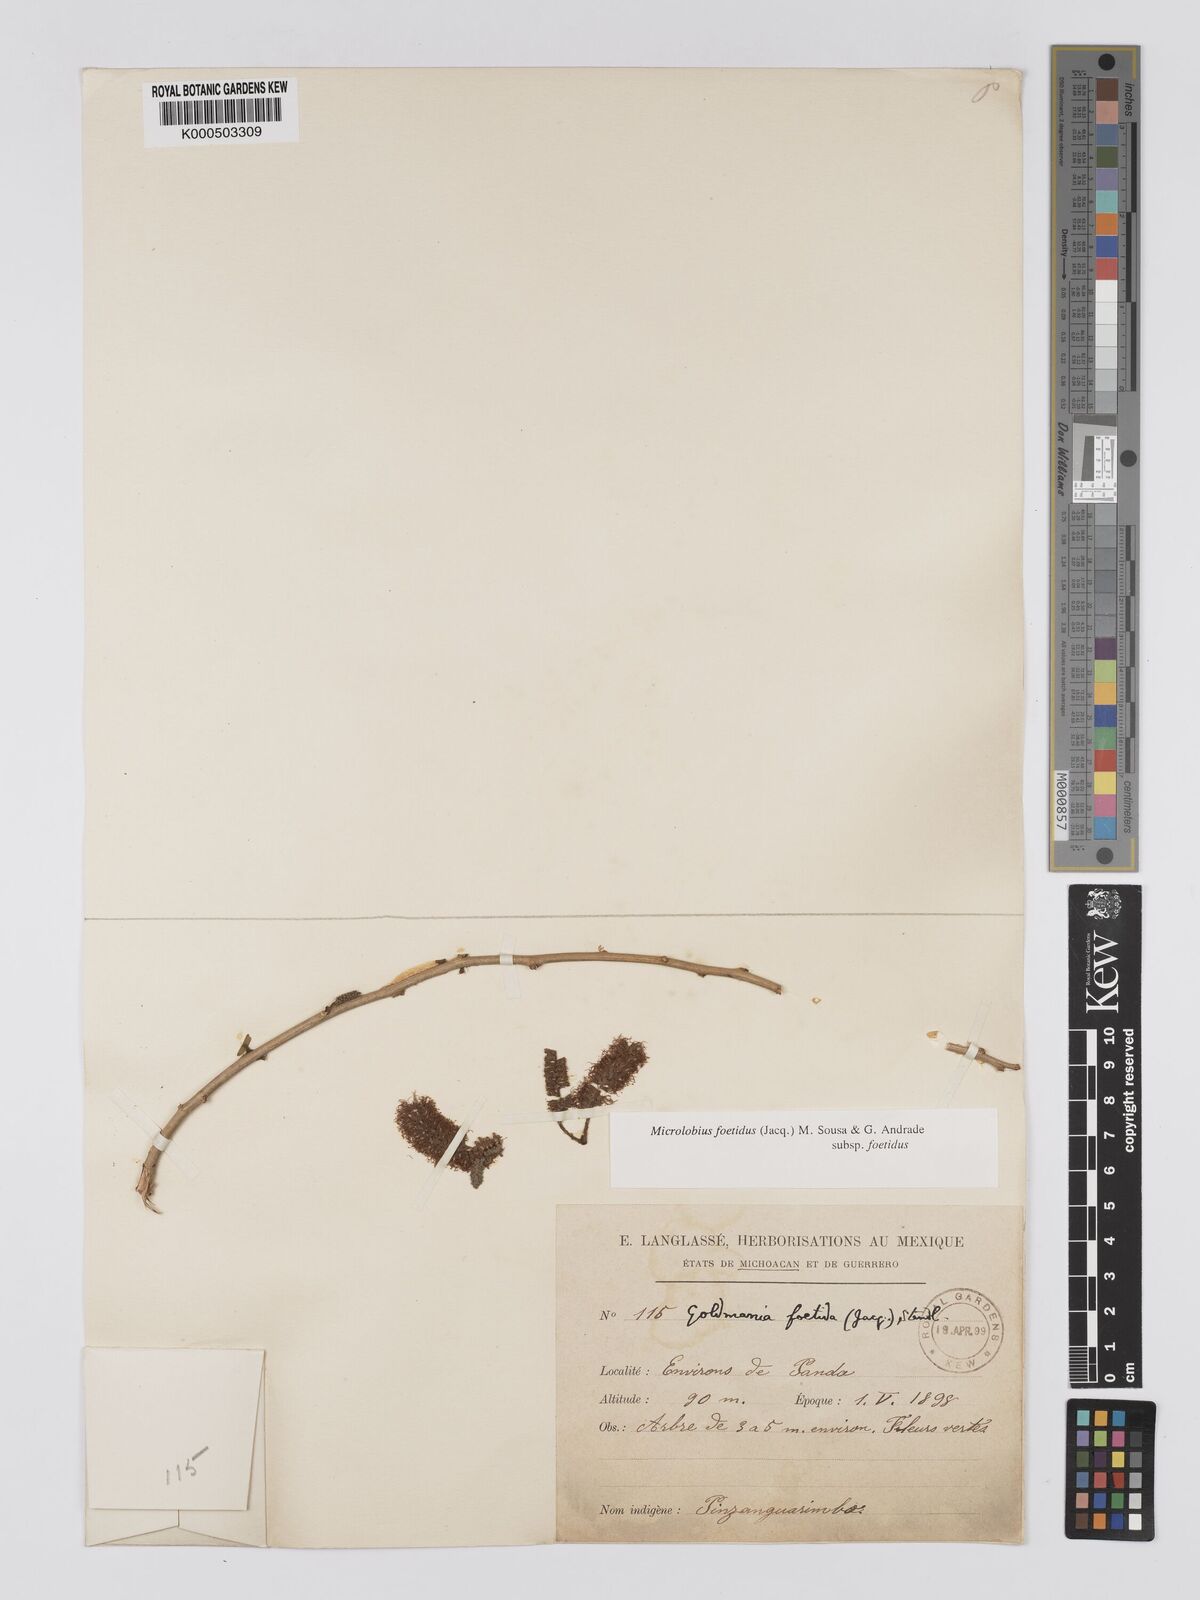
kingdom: Plantae
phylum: Tracheophyta
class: Magnoliopsida
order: Fabales
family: Fabaceae
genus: Microlobius
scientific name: Microlobius foetidus
